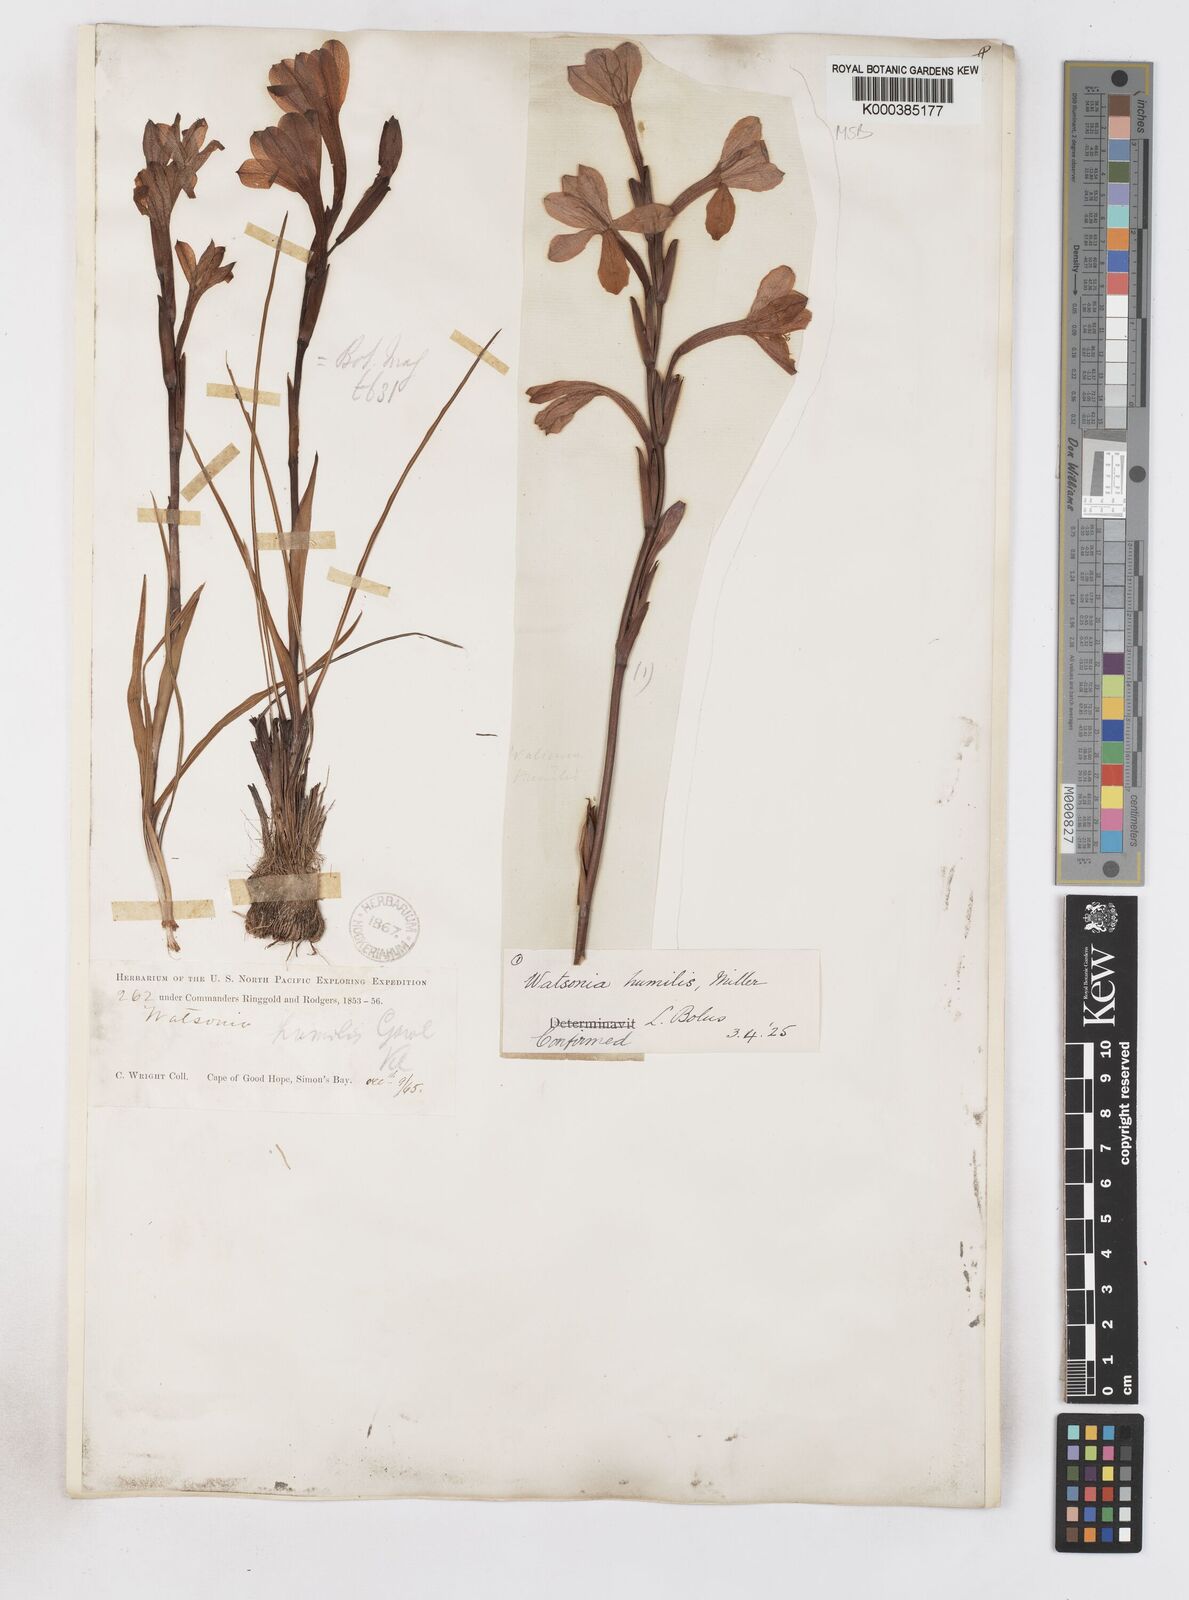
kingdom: Plantae
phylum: Tracheophyta
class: Liliopsida
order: Asparagales
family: Iridaceae
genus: Watsonia
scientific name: Watsonia humilis
